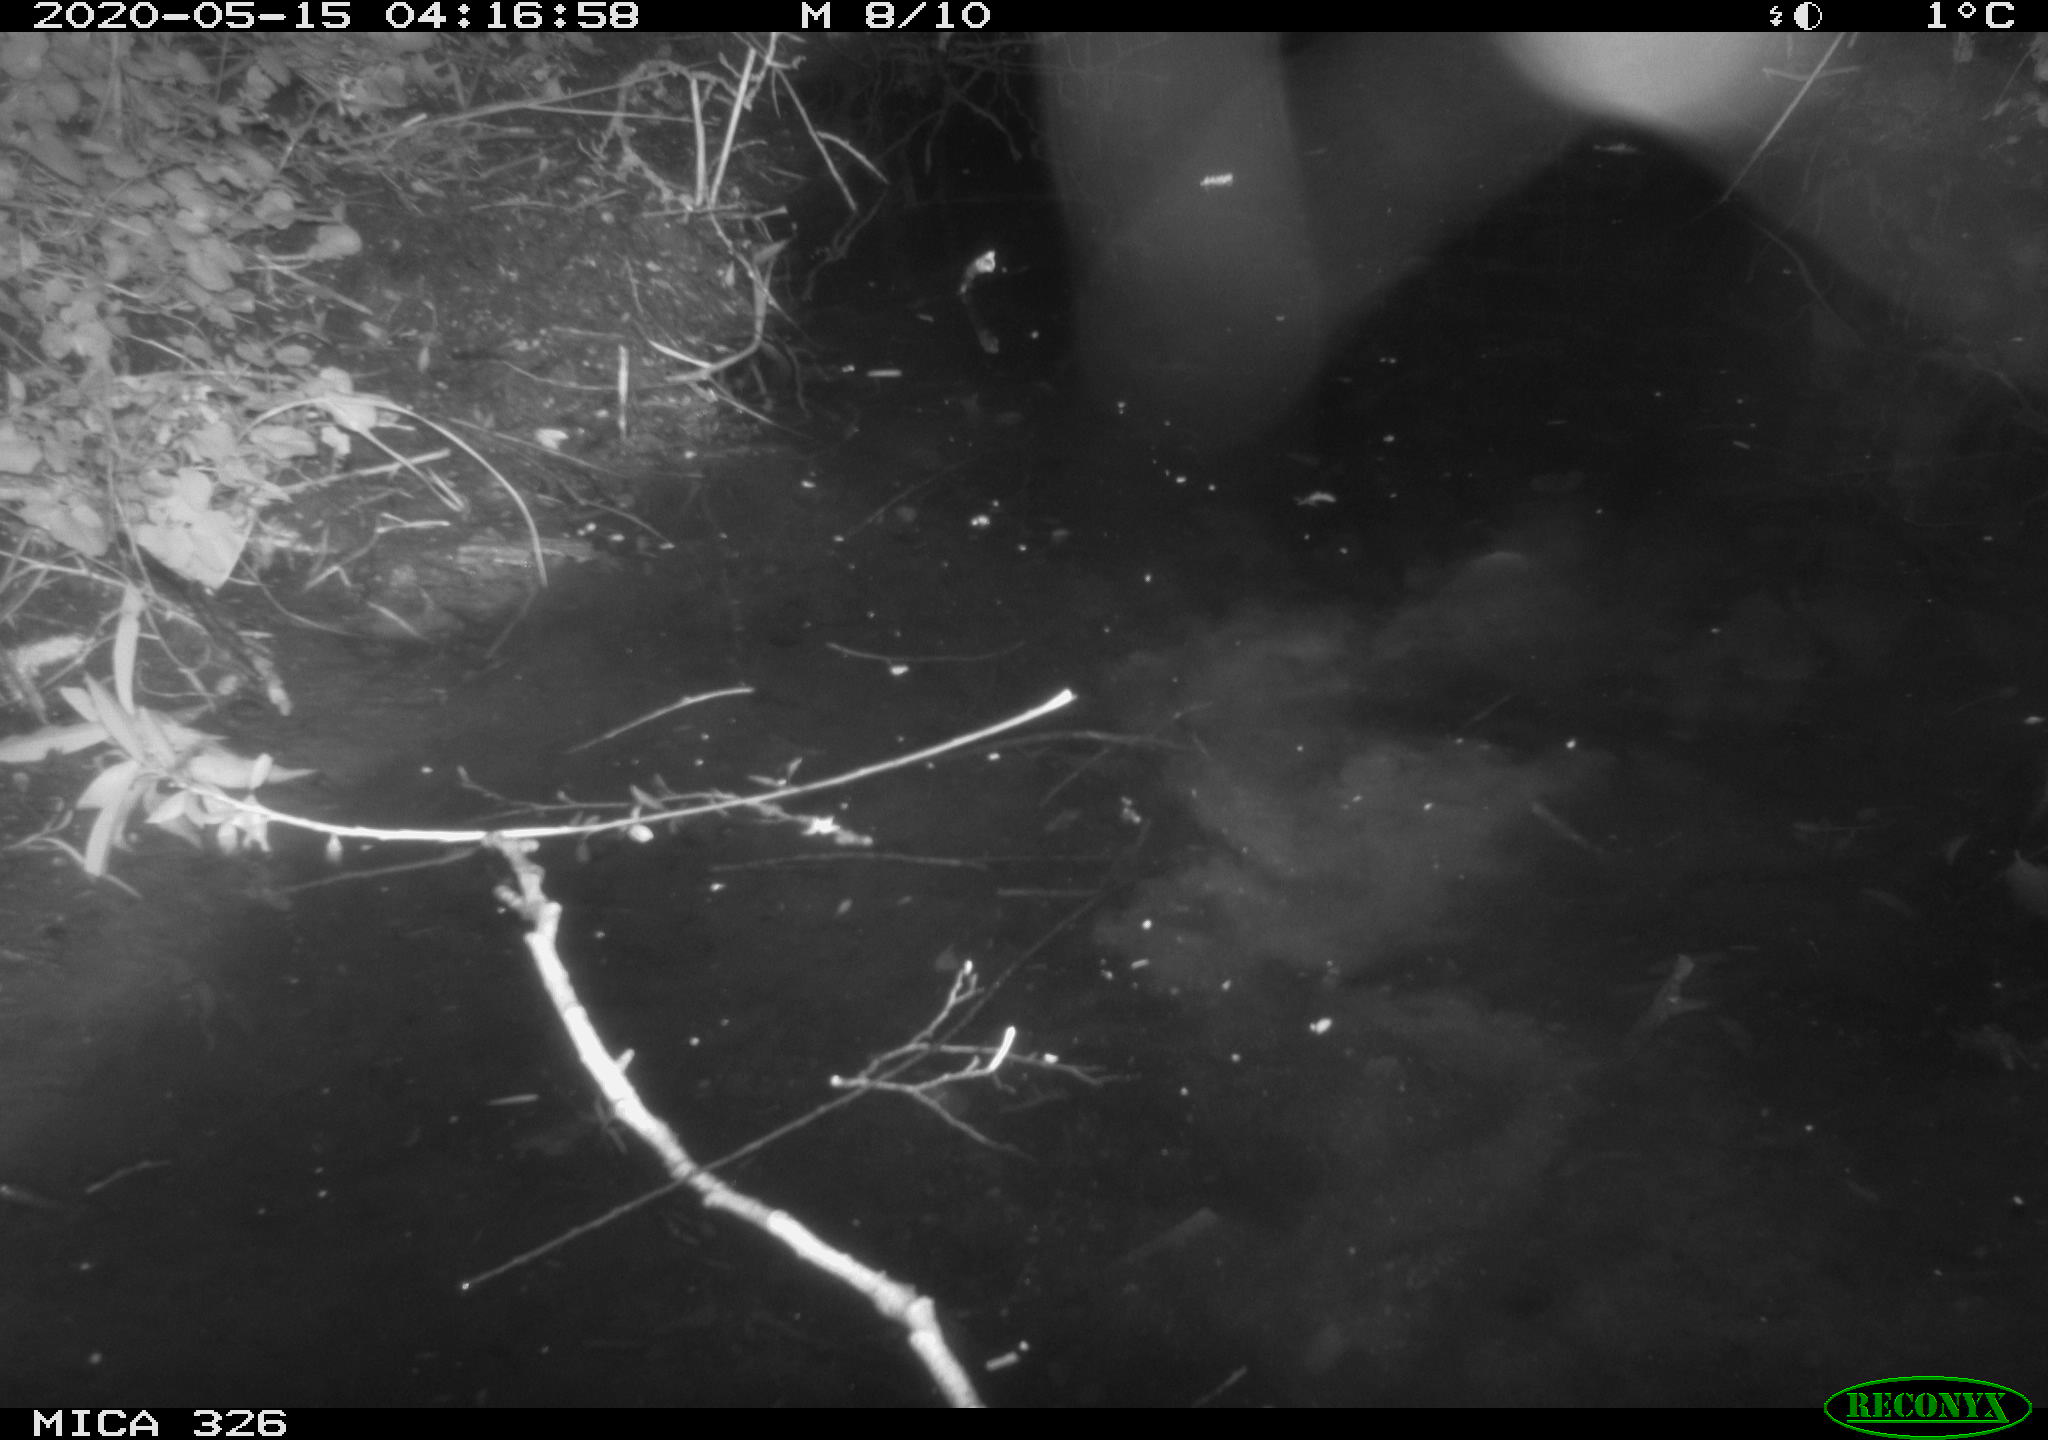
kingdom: Animalia
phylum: Chordata
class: Mammalia
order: Rodentia
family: Myocastoridae
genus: Myocastor
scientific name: Myocastor coypus
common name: Coypu
